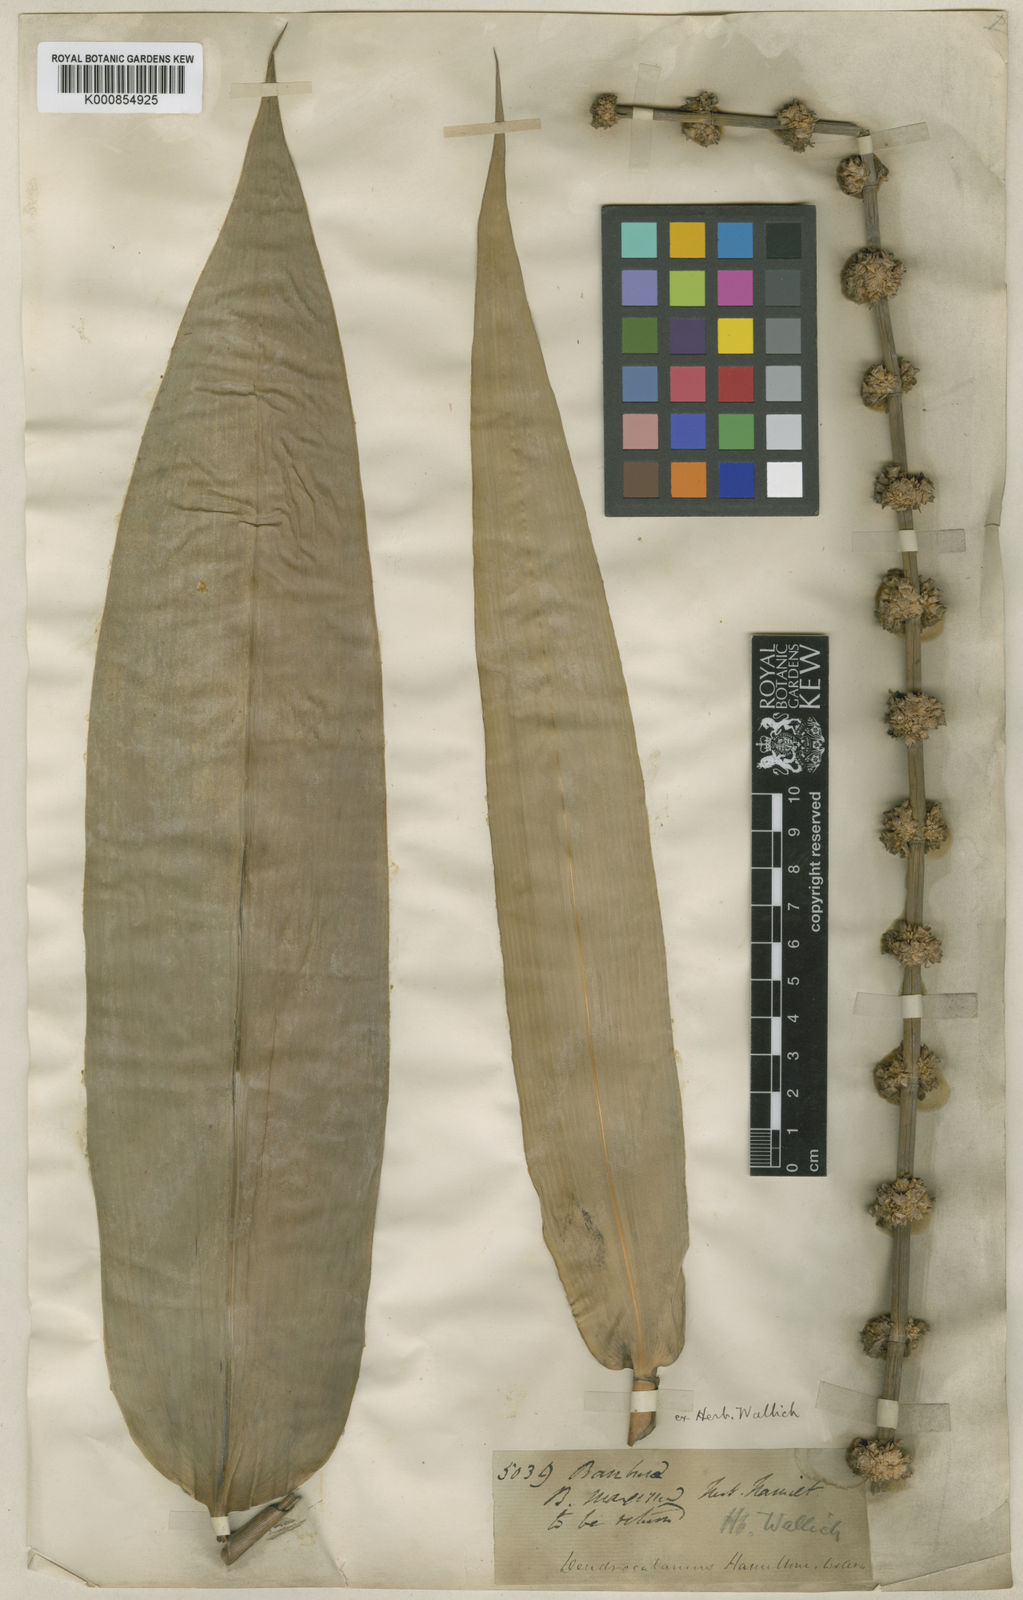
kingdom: Plantae
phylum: Tracheophyta
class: Liliopsida
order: Poales
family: Poaceae
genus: Dendrocalamus
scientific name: Dendrocalamus hamiltonii
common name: Tama bamboo
